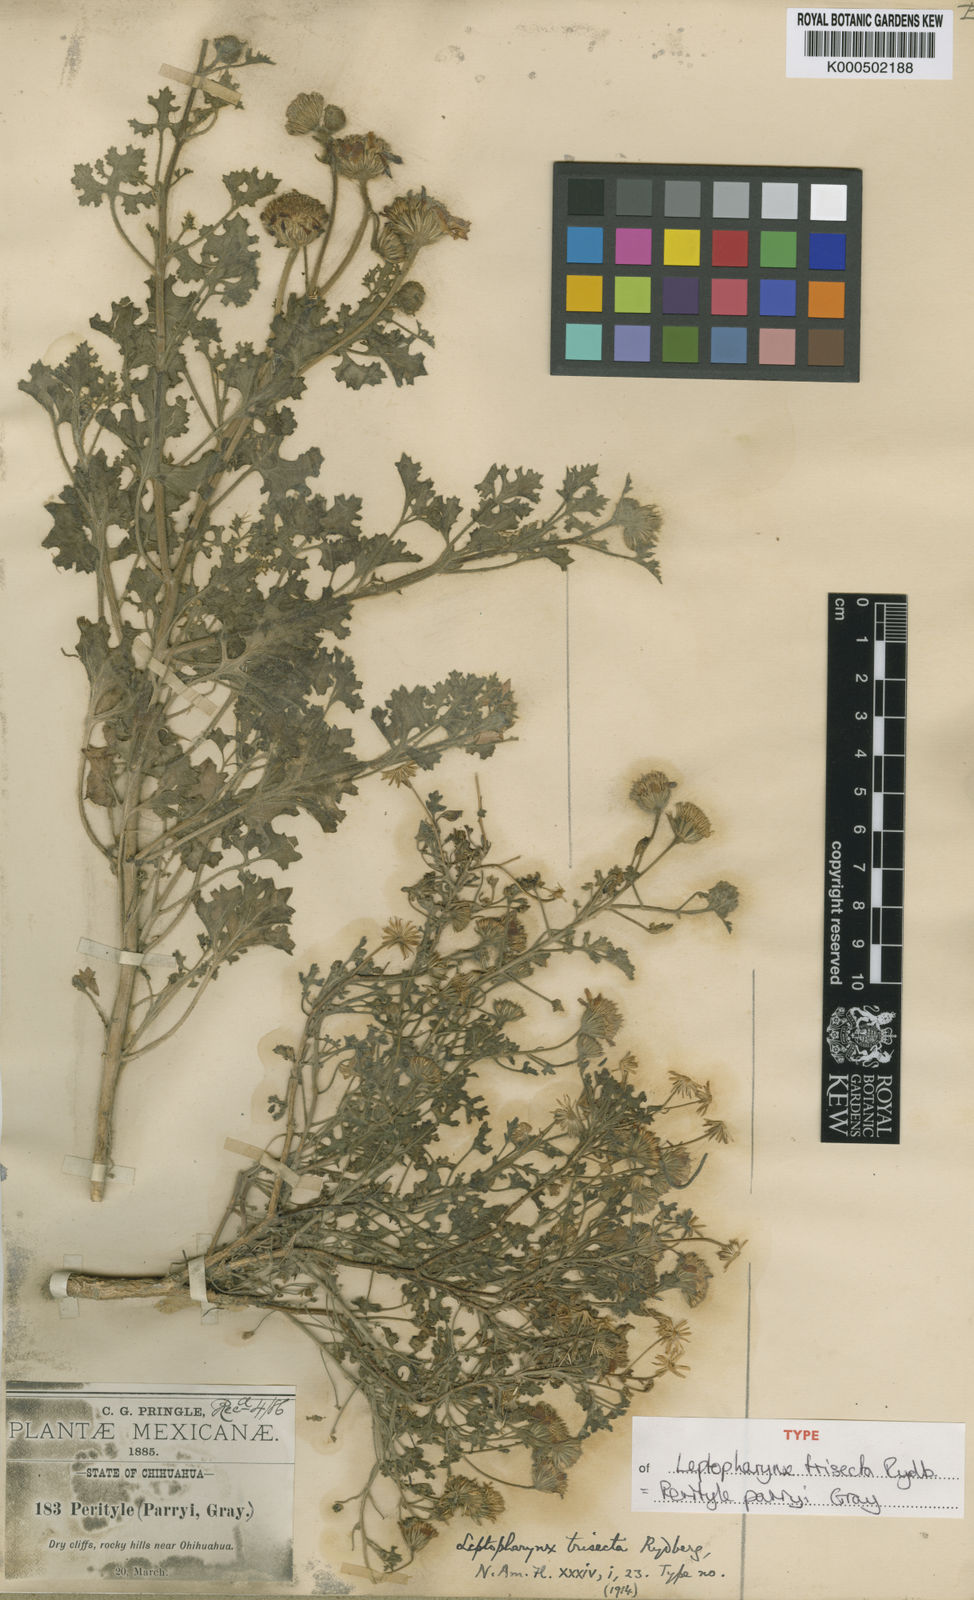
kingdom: Plantae
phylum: Tracheophyta
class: Magnoliopsida
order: Asterales
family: Asteraceae
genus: Laphamia
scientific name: Laphamia parryi
